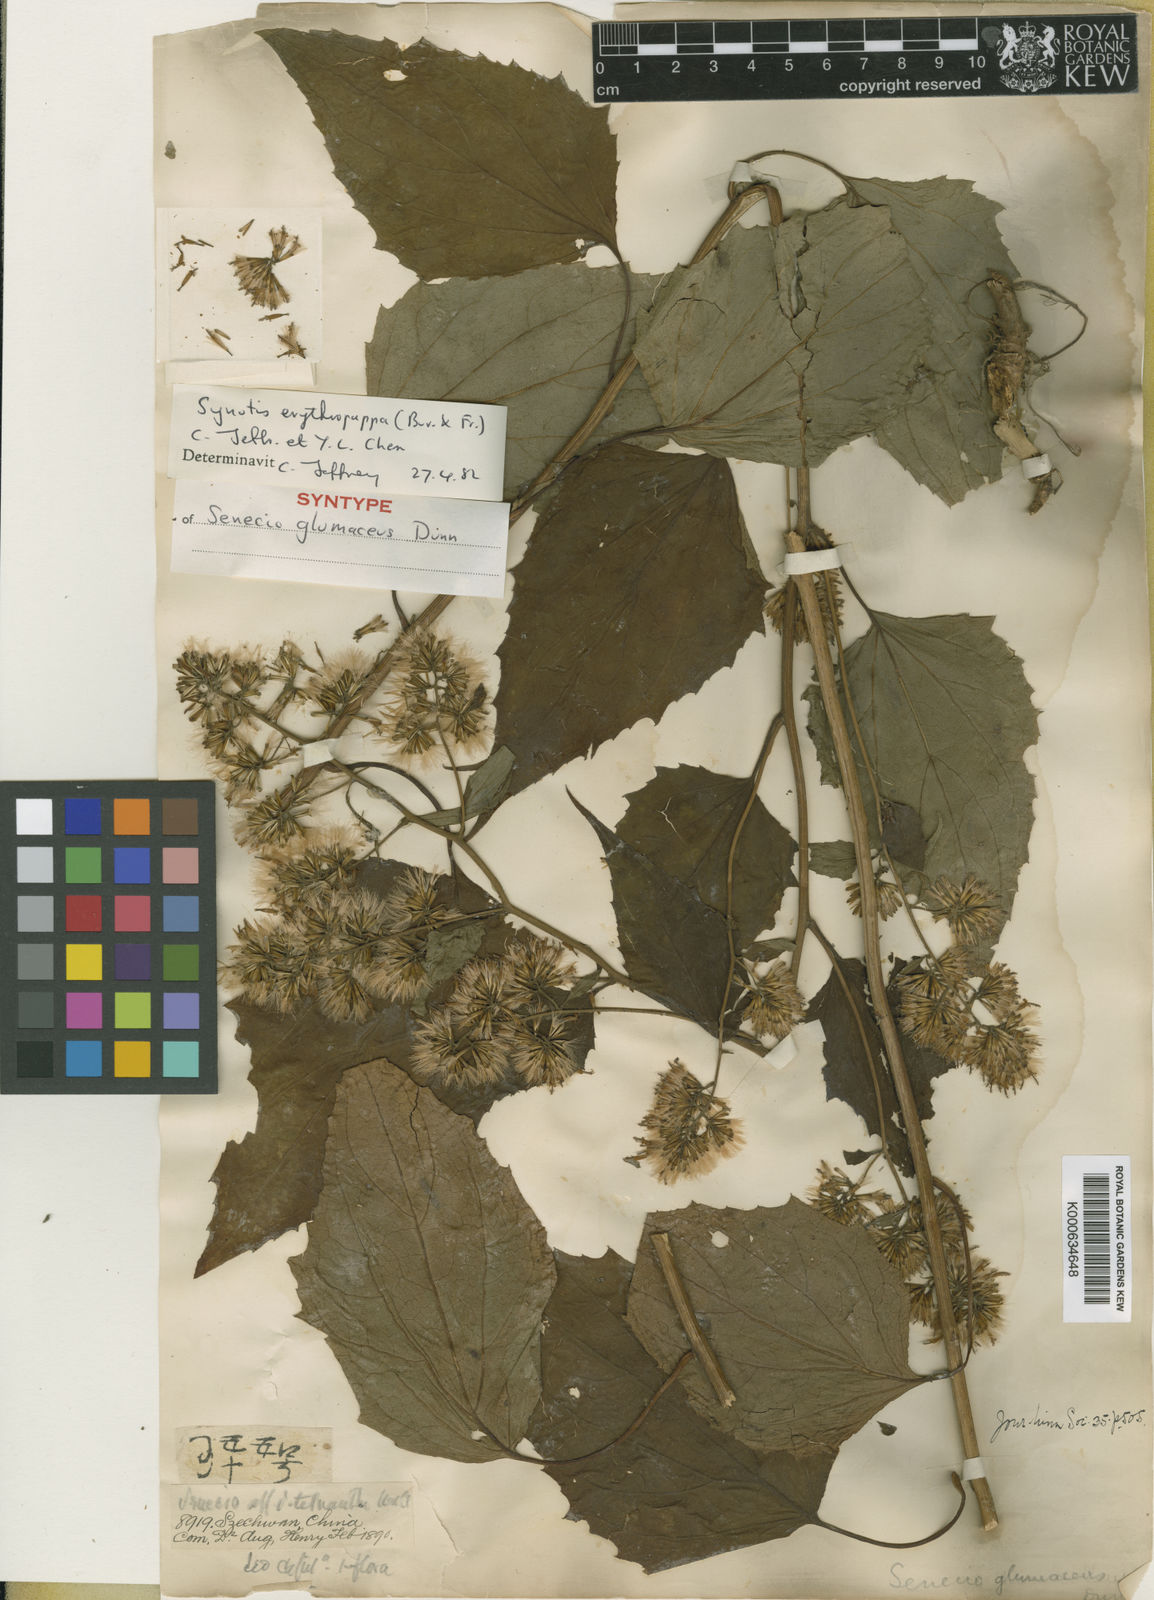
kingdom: Plantae
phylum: Tracheophyta
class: Magnoliopsida
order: Asterales
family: Asteraceae
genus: Synotis
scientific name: Synotis erythropappa
